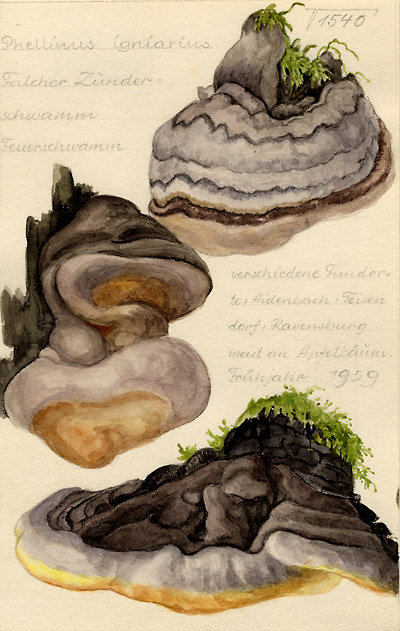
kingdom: Fungi
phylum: Basidiomycota
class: Agaricomycetes
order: Hymenochaetales
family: Hymenochaetaceae
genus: Phellinus
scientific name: Phellinus igniarius
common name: Willow bracket
